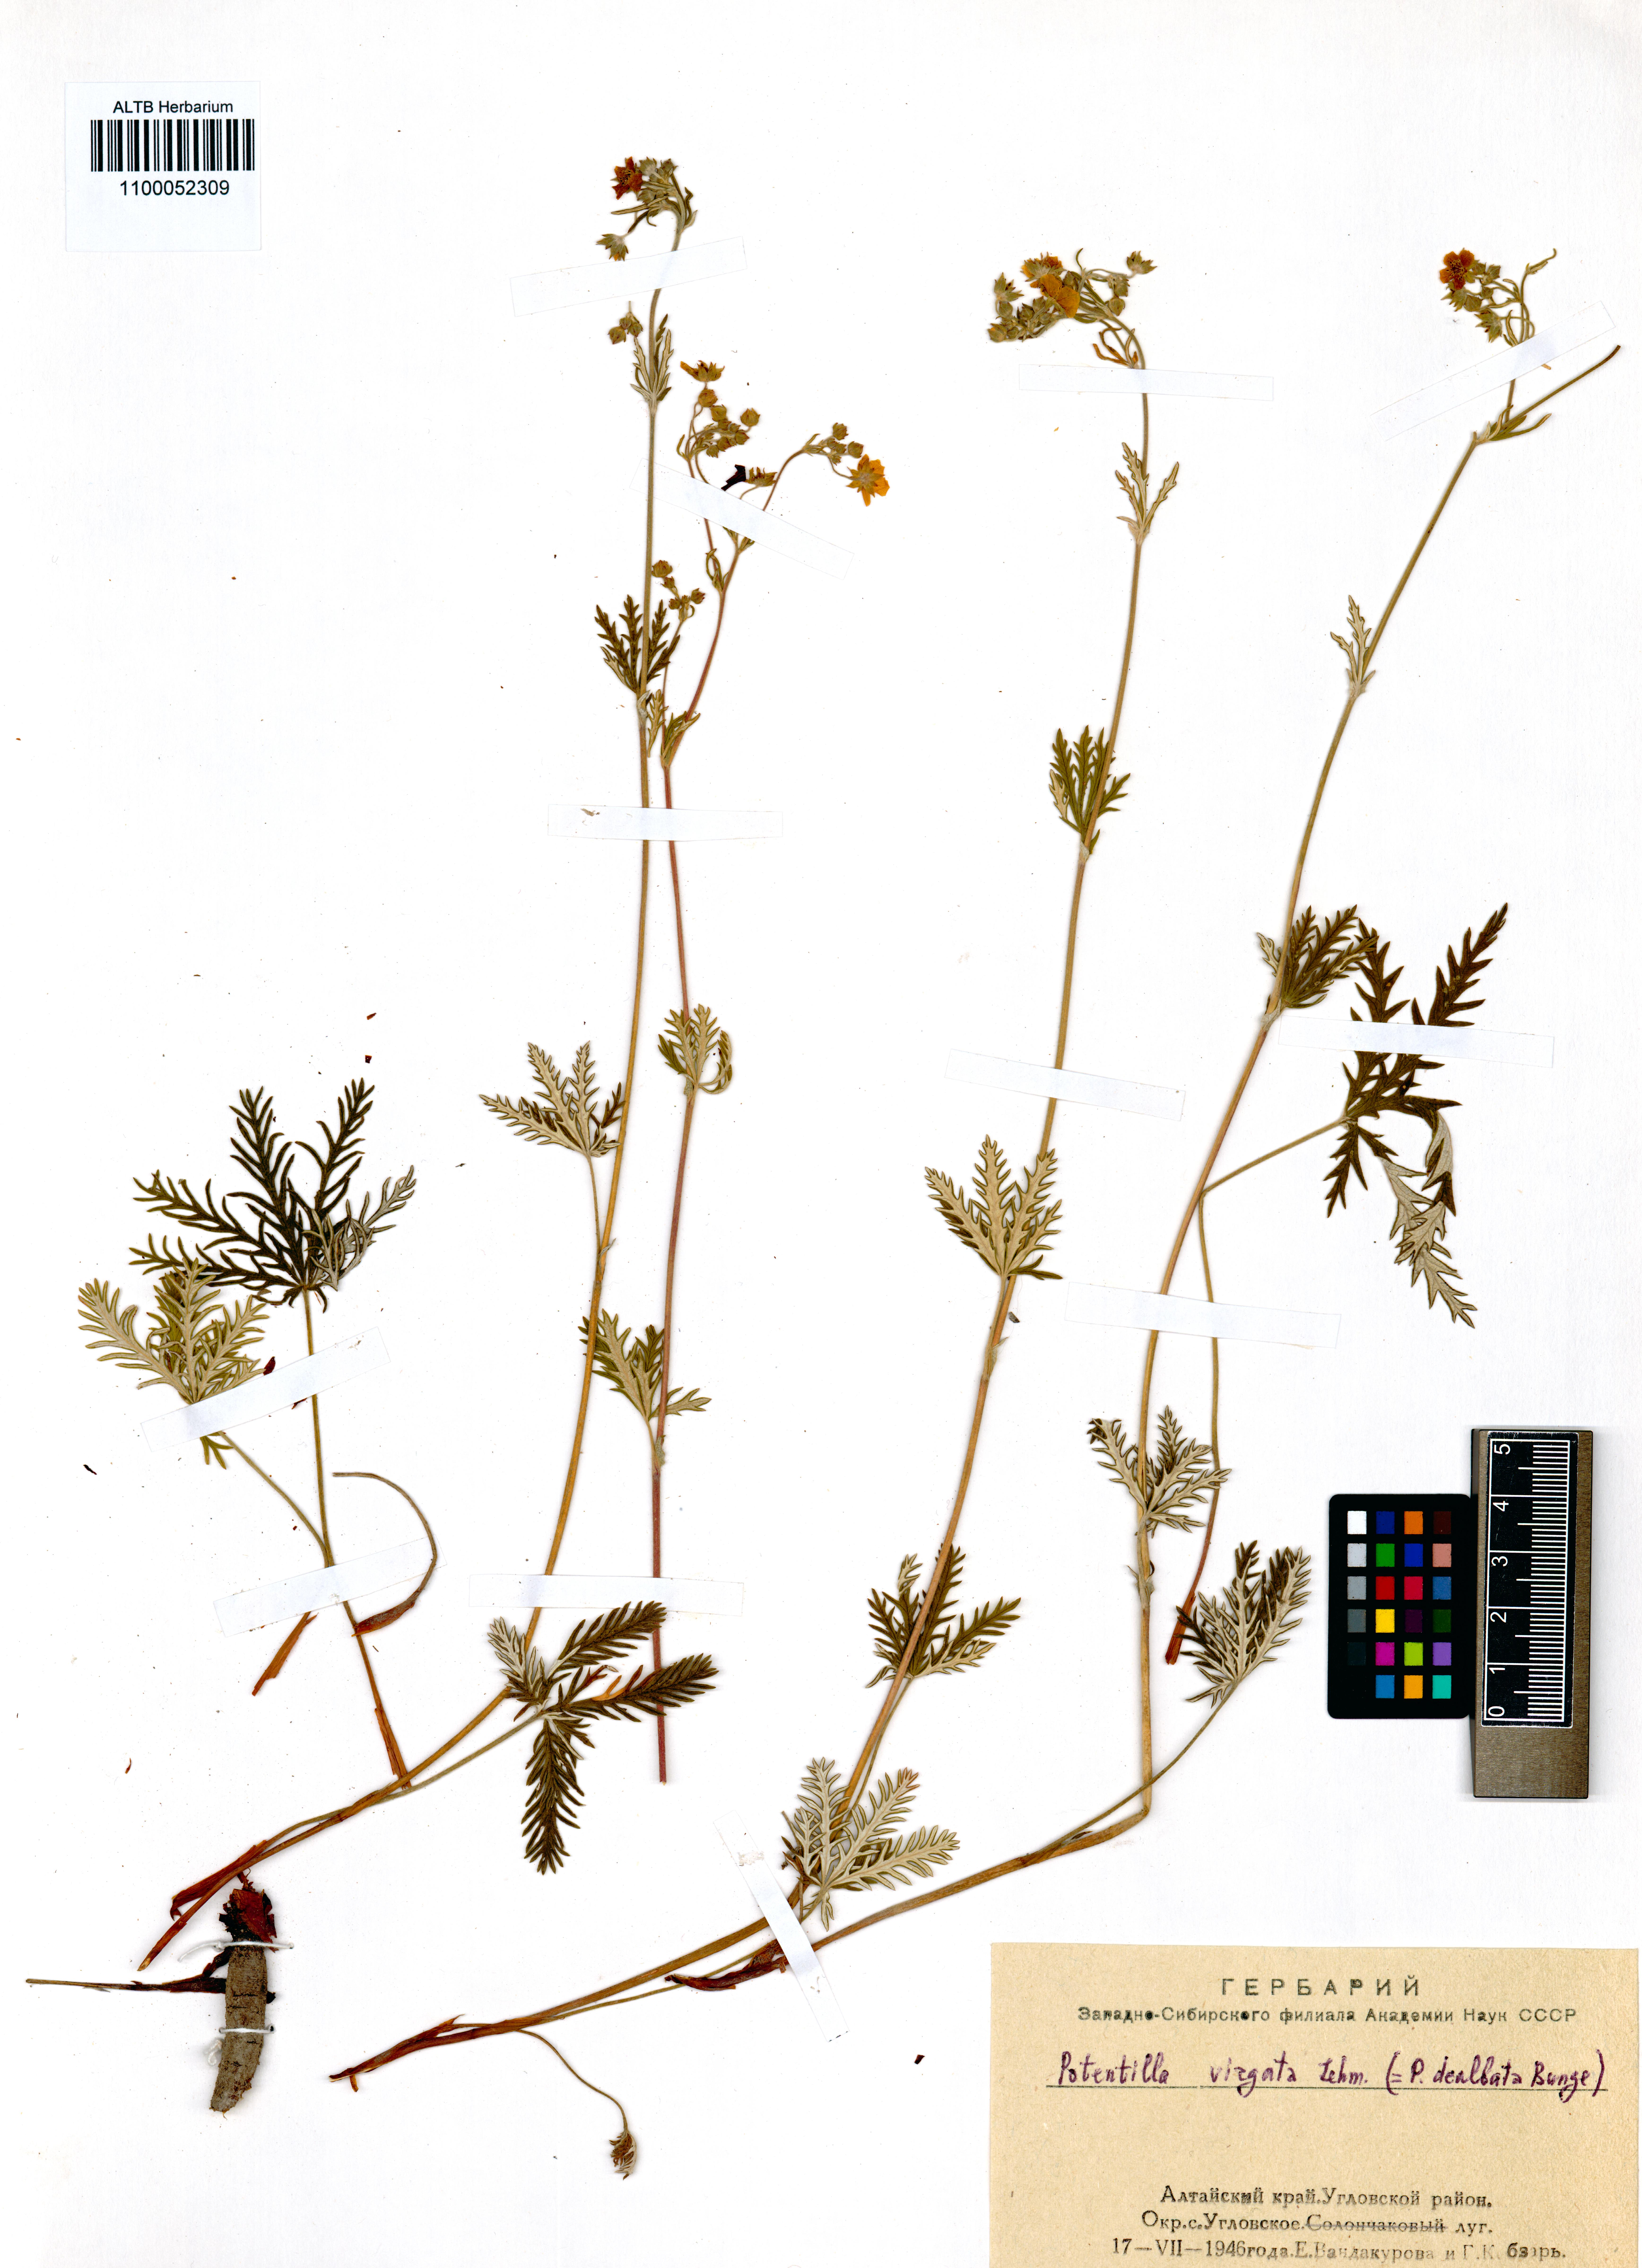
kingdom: Plantae
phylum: Tracheophyta
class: Magnoliopsida
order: Rosales
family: Rosaceae
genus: Potentilla
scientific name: Potentilla virgata
